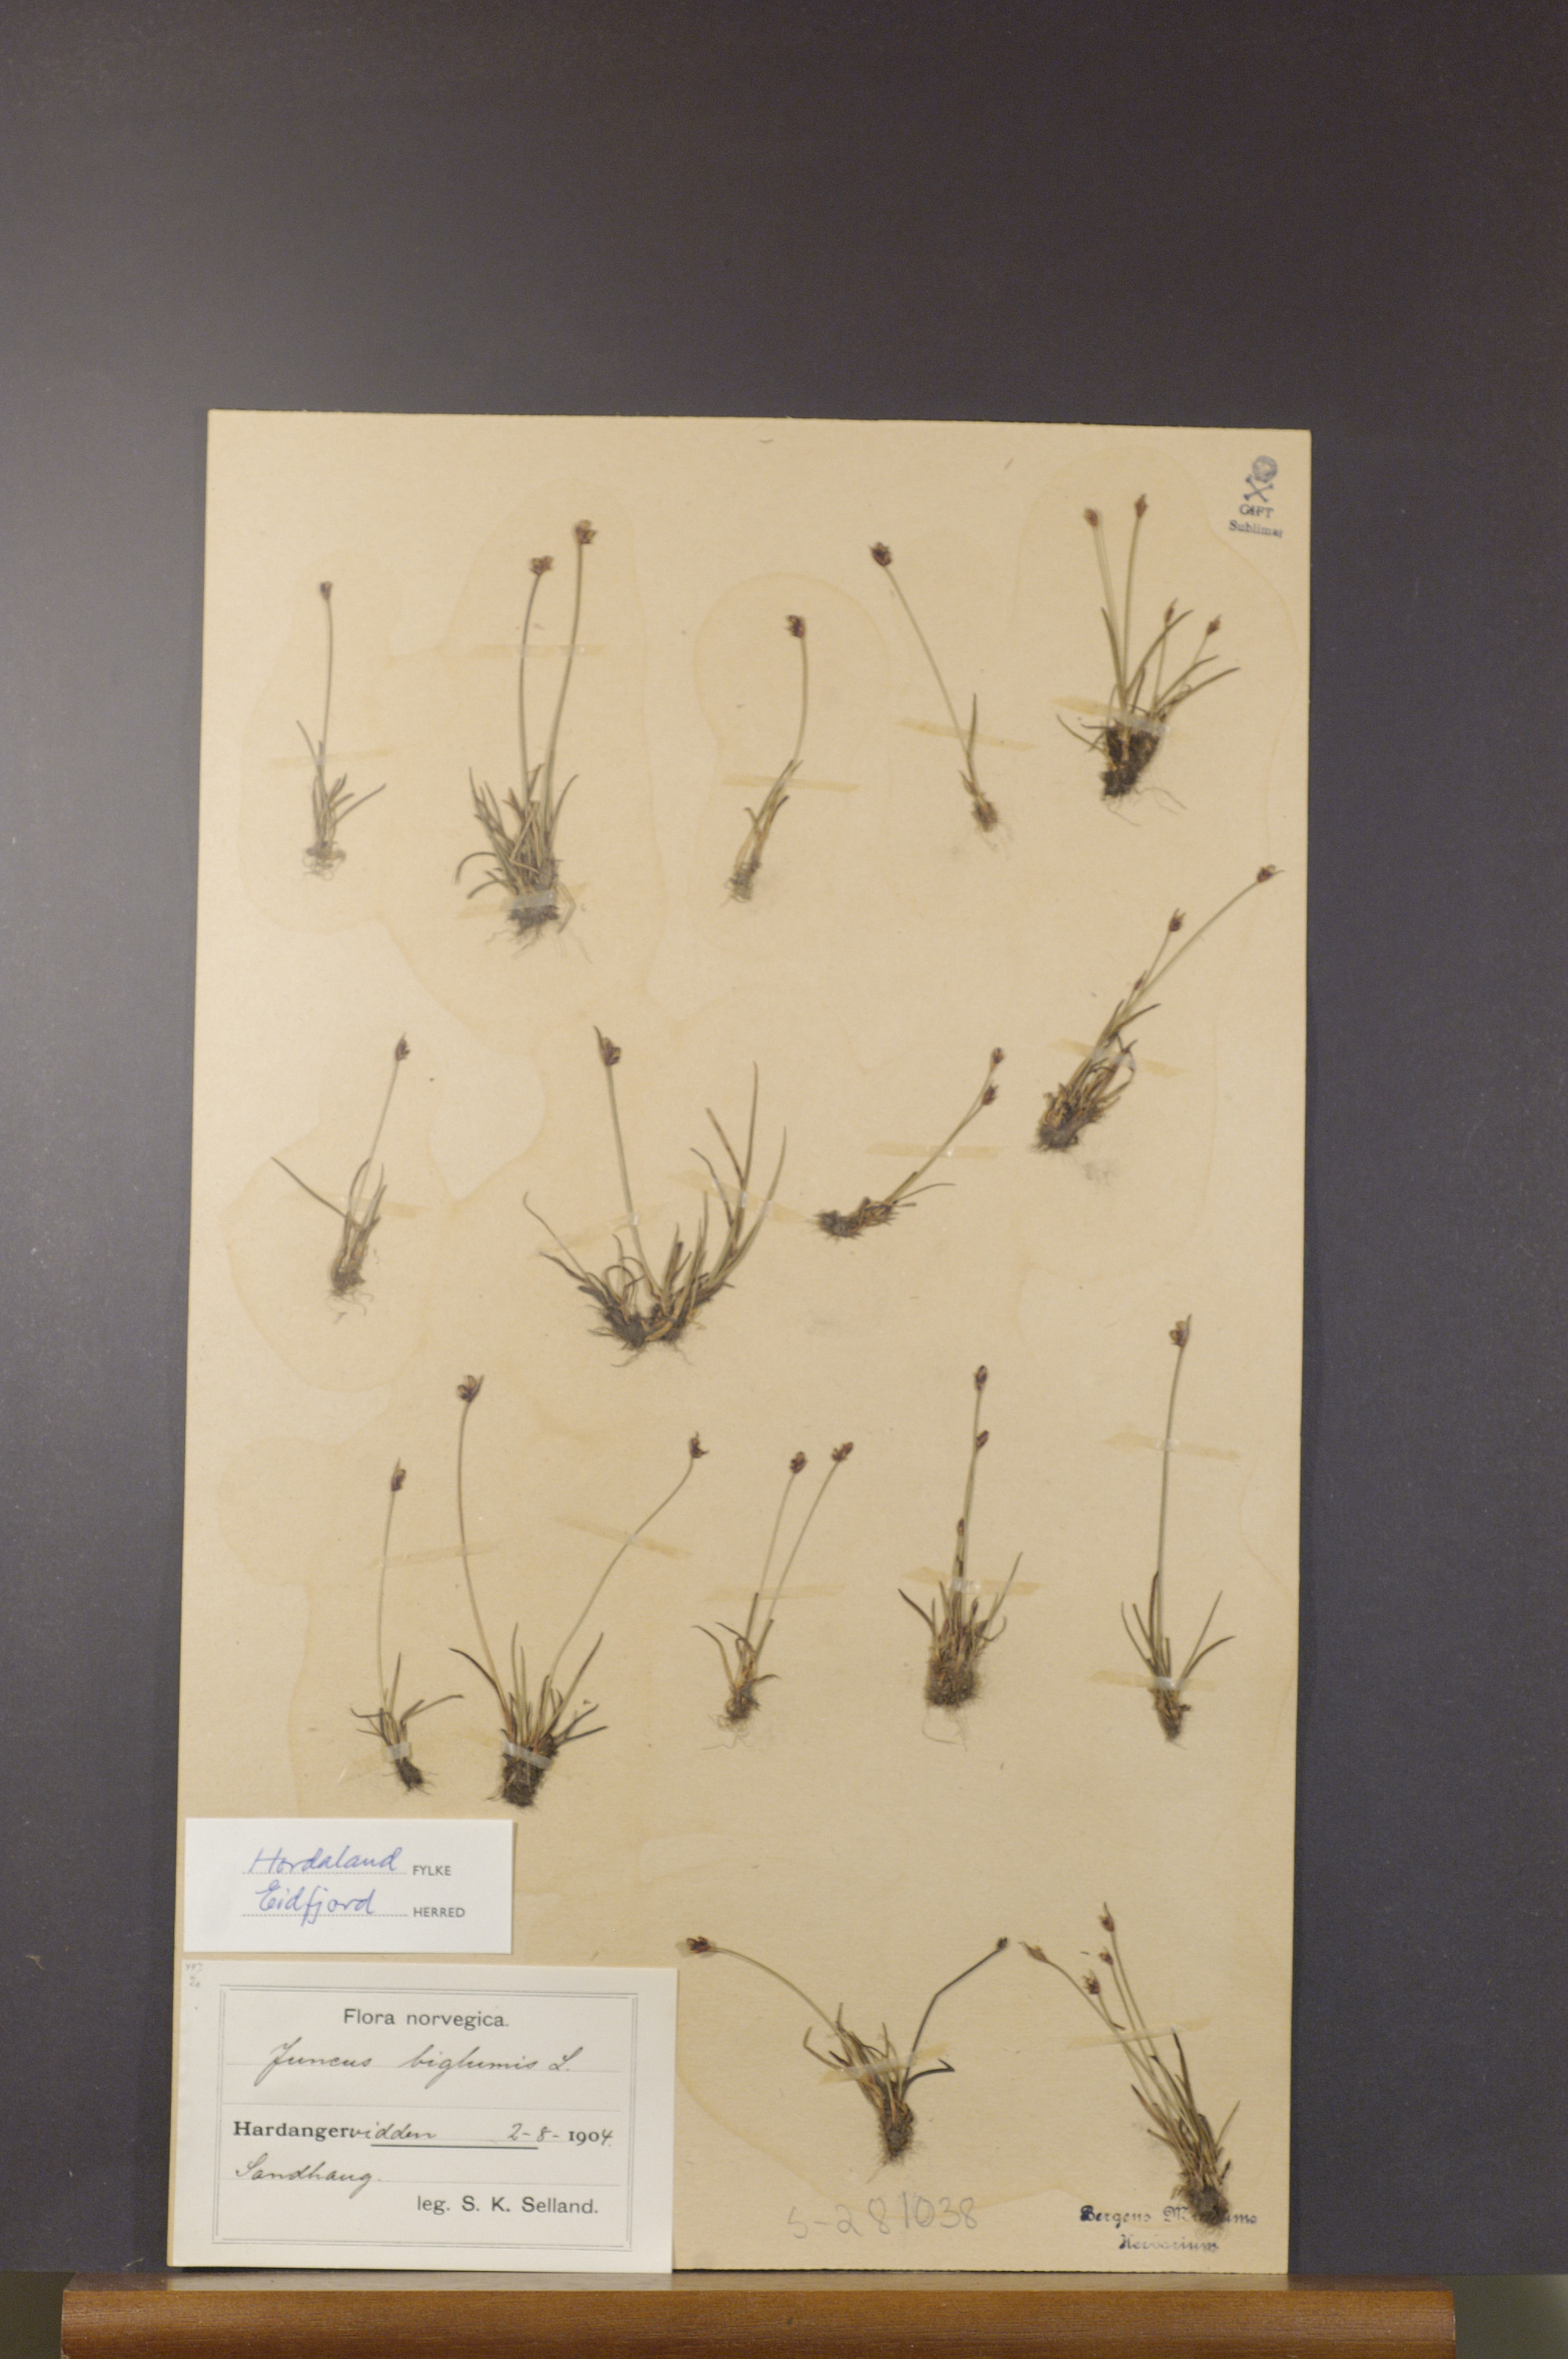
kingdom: Plantae
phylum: Tracheophyta
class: Liliopsida
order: Poales
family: Juncaceae
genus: Juncus
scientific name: Juncus biglumis
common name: Two-flowered rush
